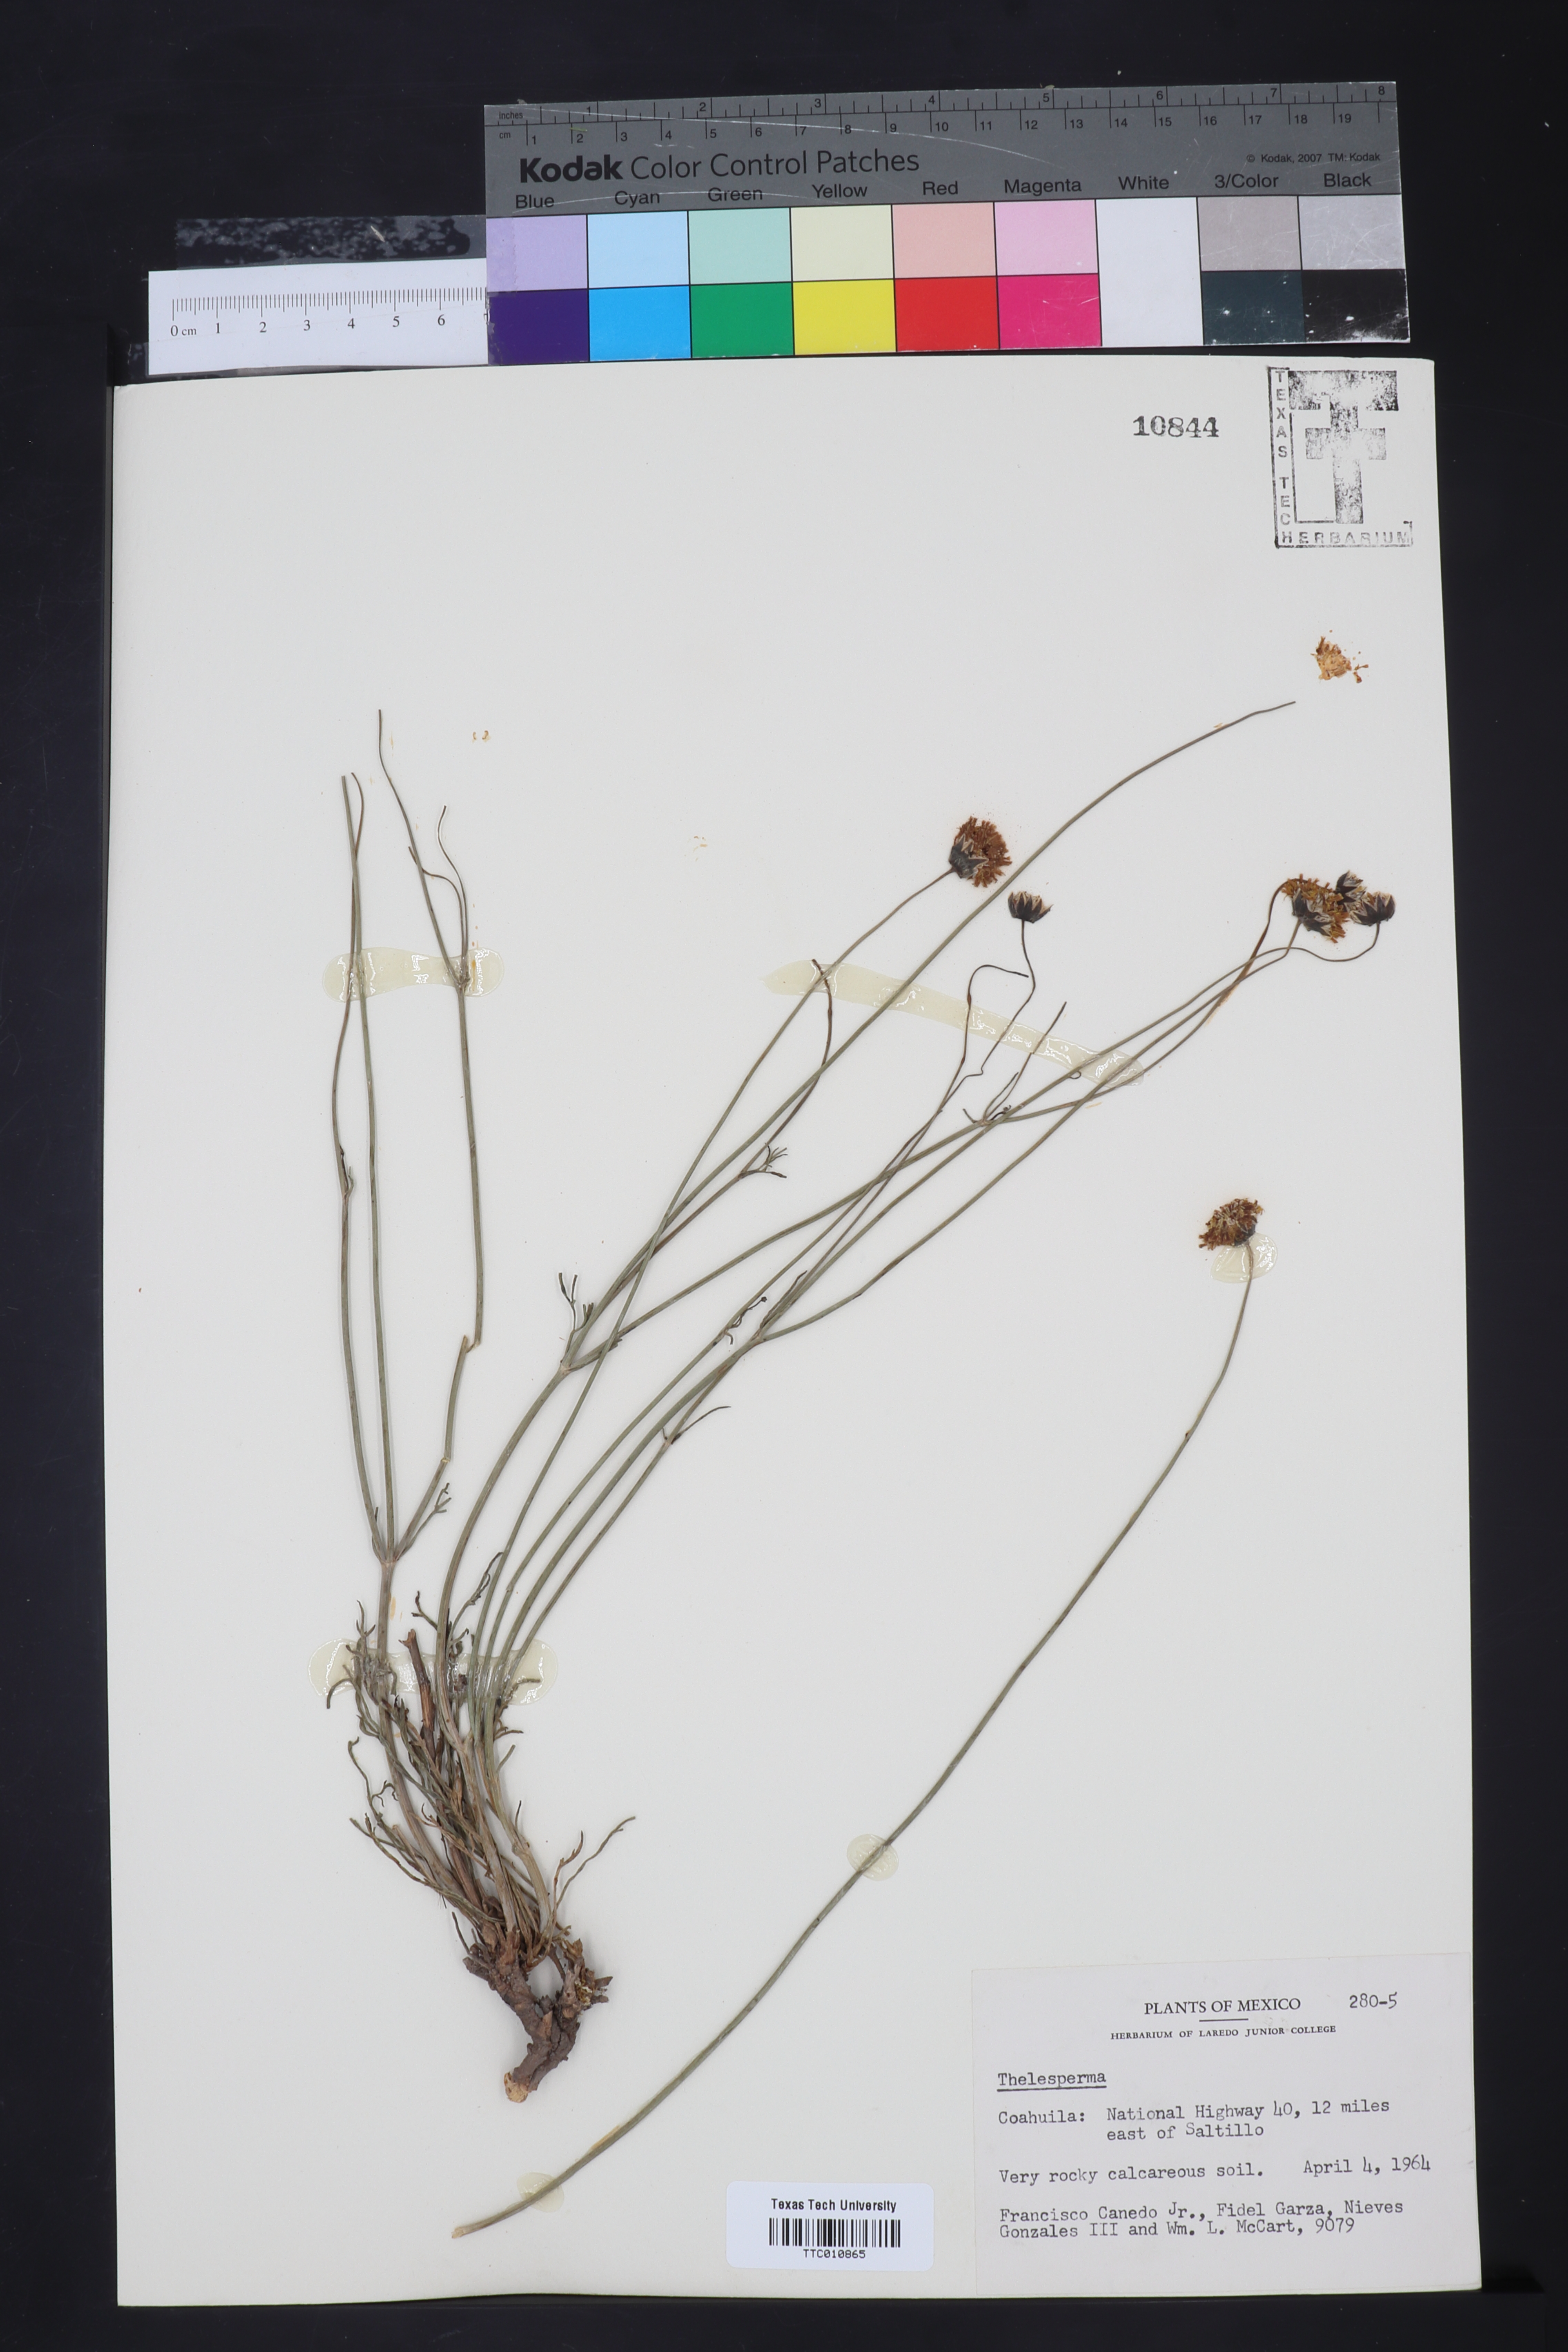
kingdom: Plantae
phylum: Tracheophyta
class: Magnoliopsida
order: Asterales
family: Asteraceae
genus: Thelesperma
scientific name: Thelesperma
